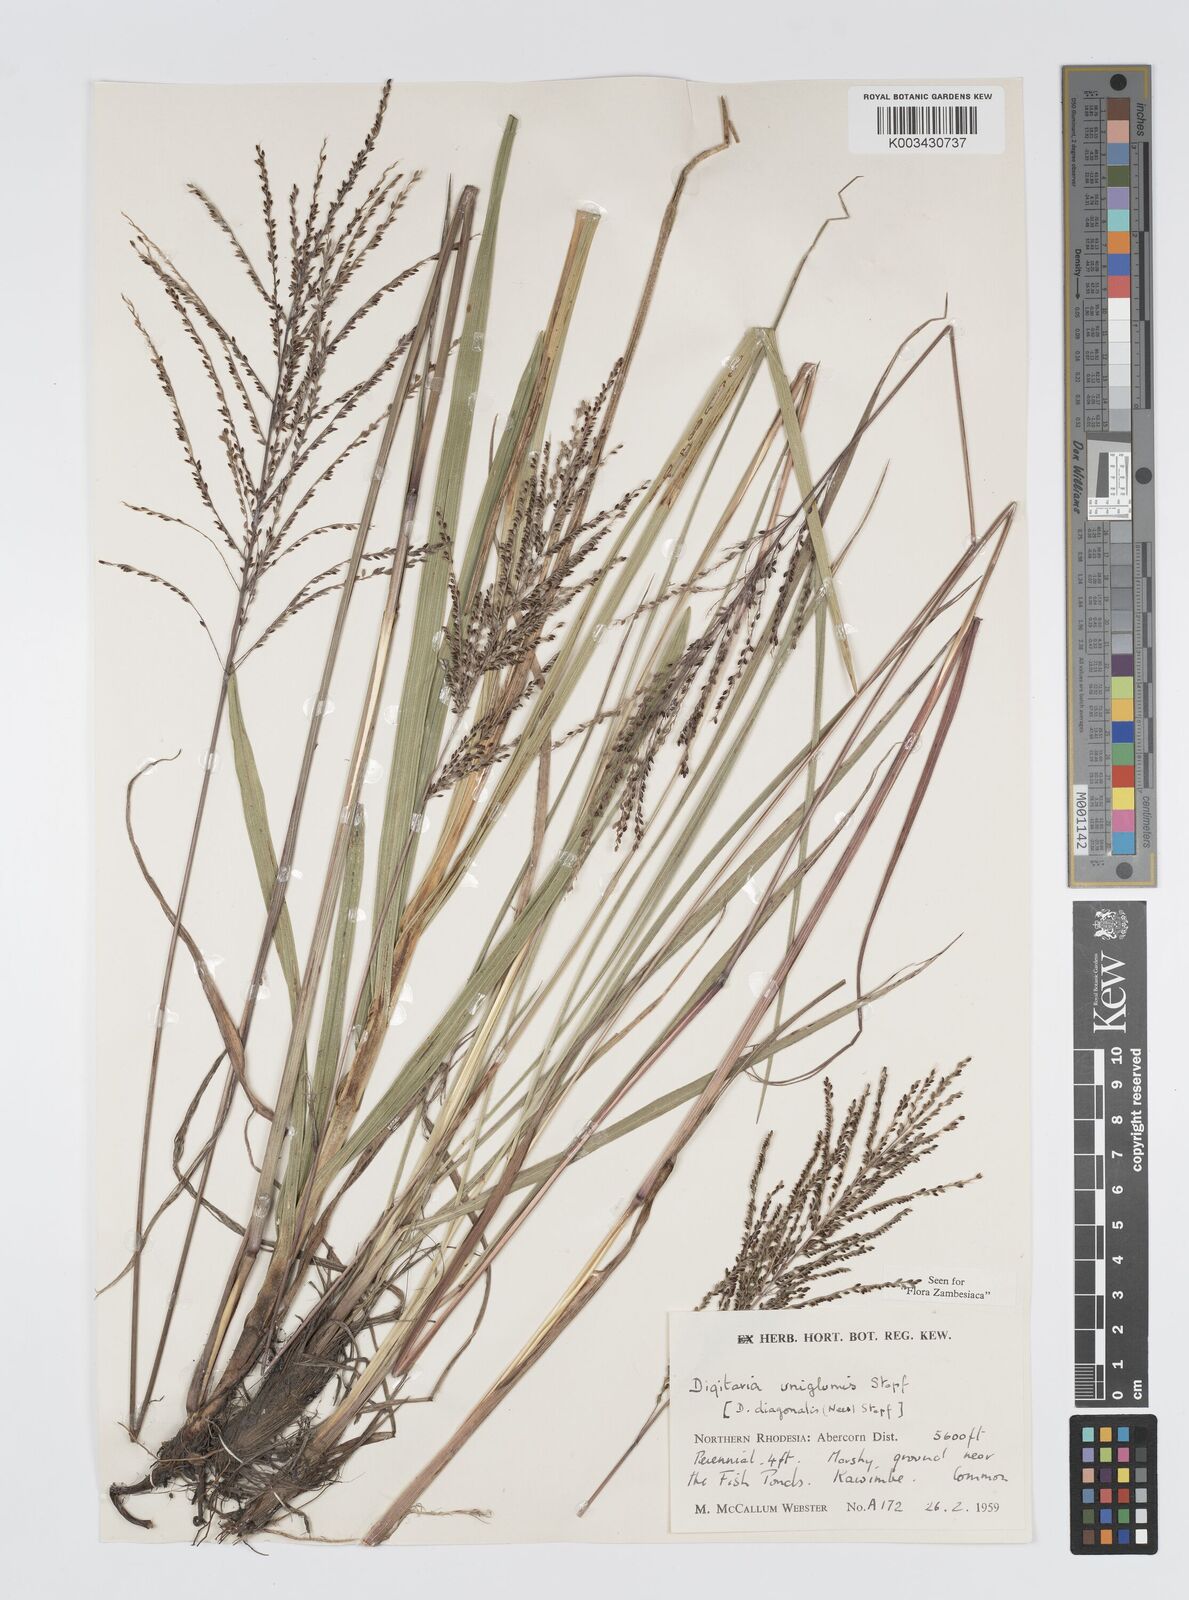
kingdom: Plantae
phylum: Tracheophyta
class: Liliopsida
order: Poales
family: Poaceae
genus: Digitaria
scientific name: Digitaria diagonalis
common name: Brown-seed finger grass
